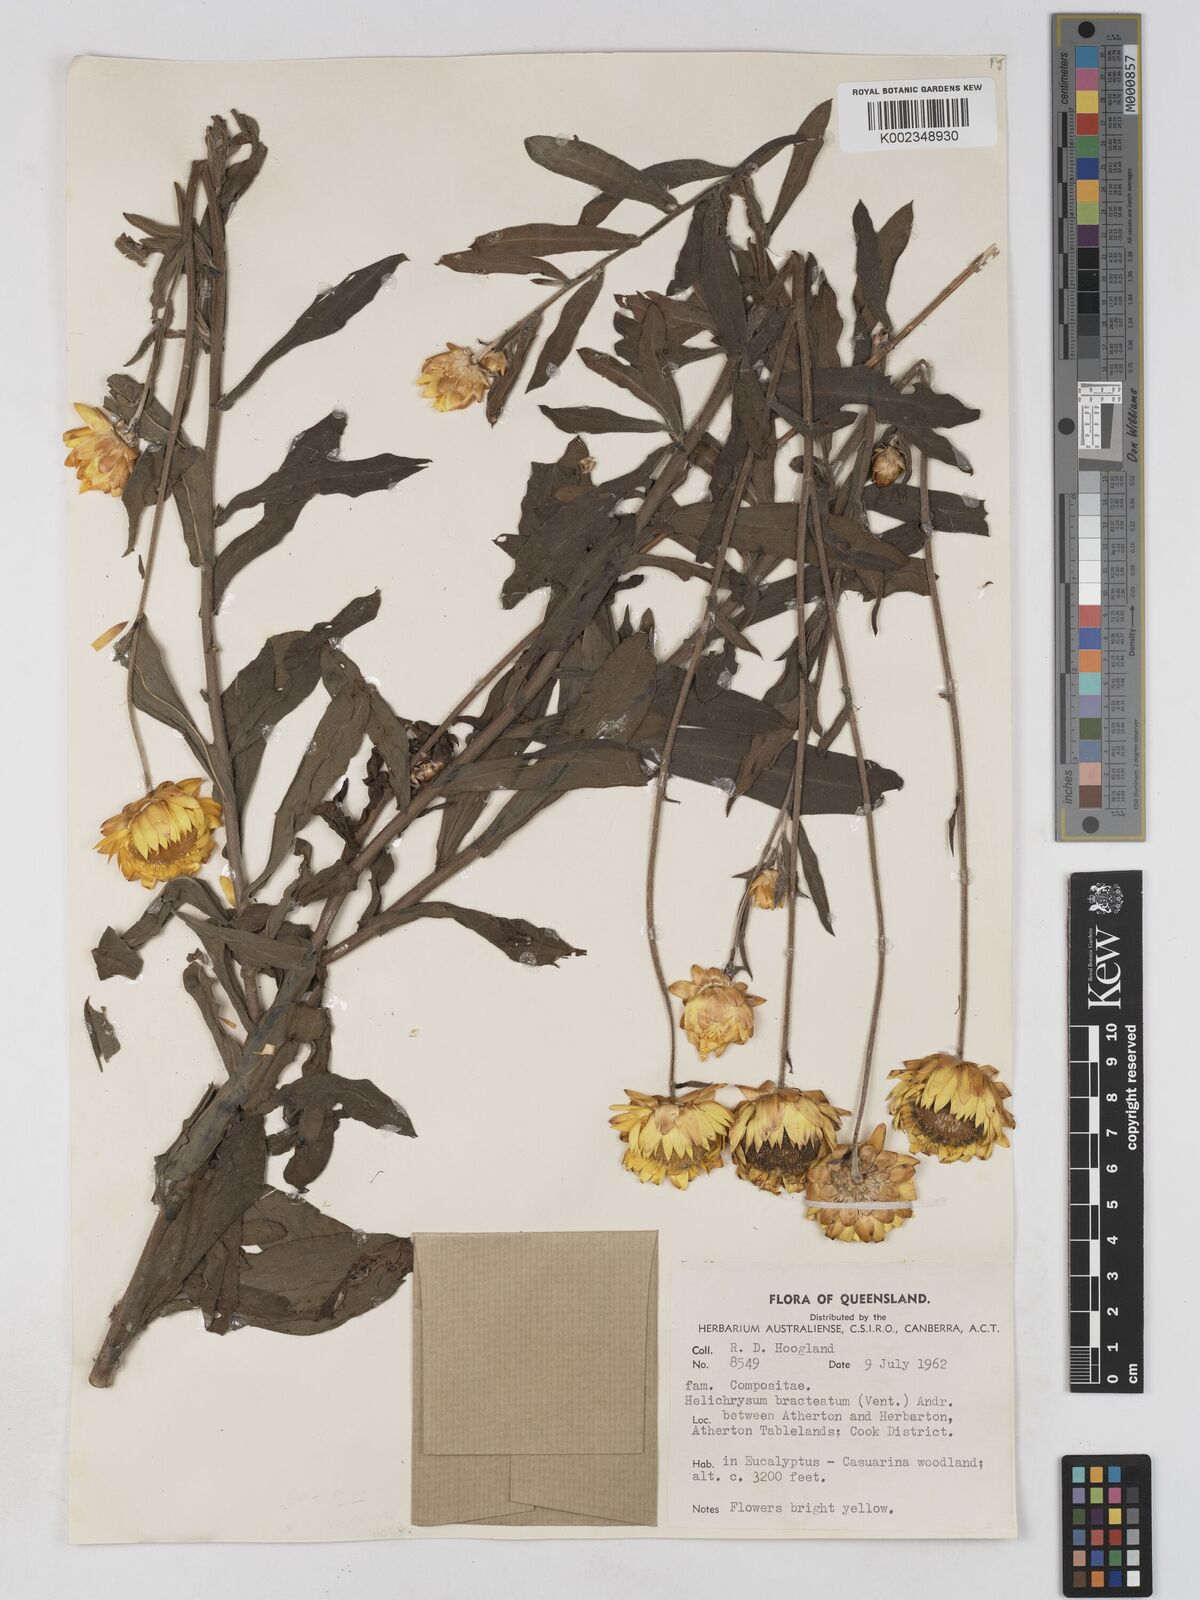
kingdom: Plantae
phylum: Tracheophyta
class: Magnoliopsida
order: Asterales
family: Asteraceae
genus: Xerochrysum
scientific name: Xerochrysum bracteatum
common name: Bracted strawflower
